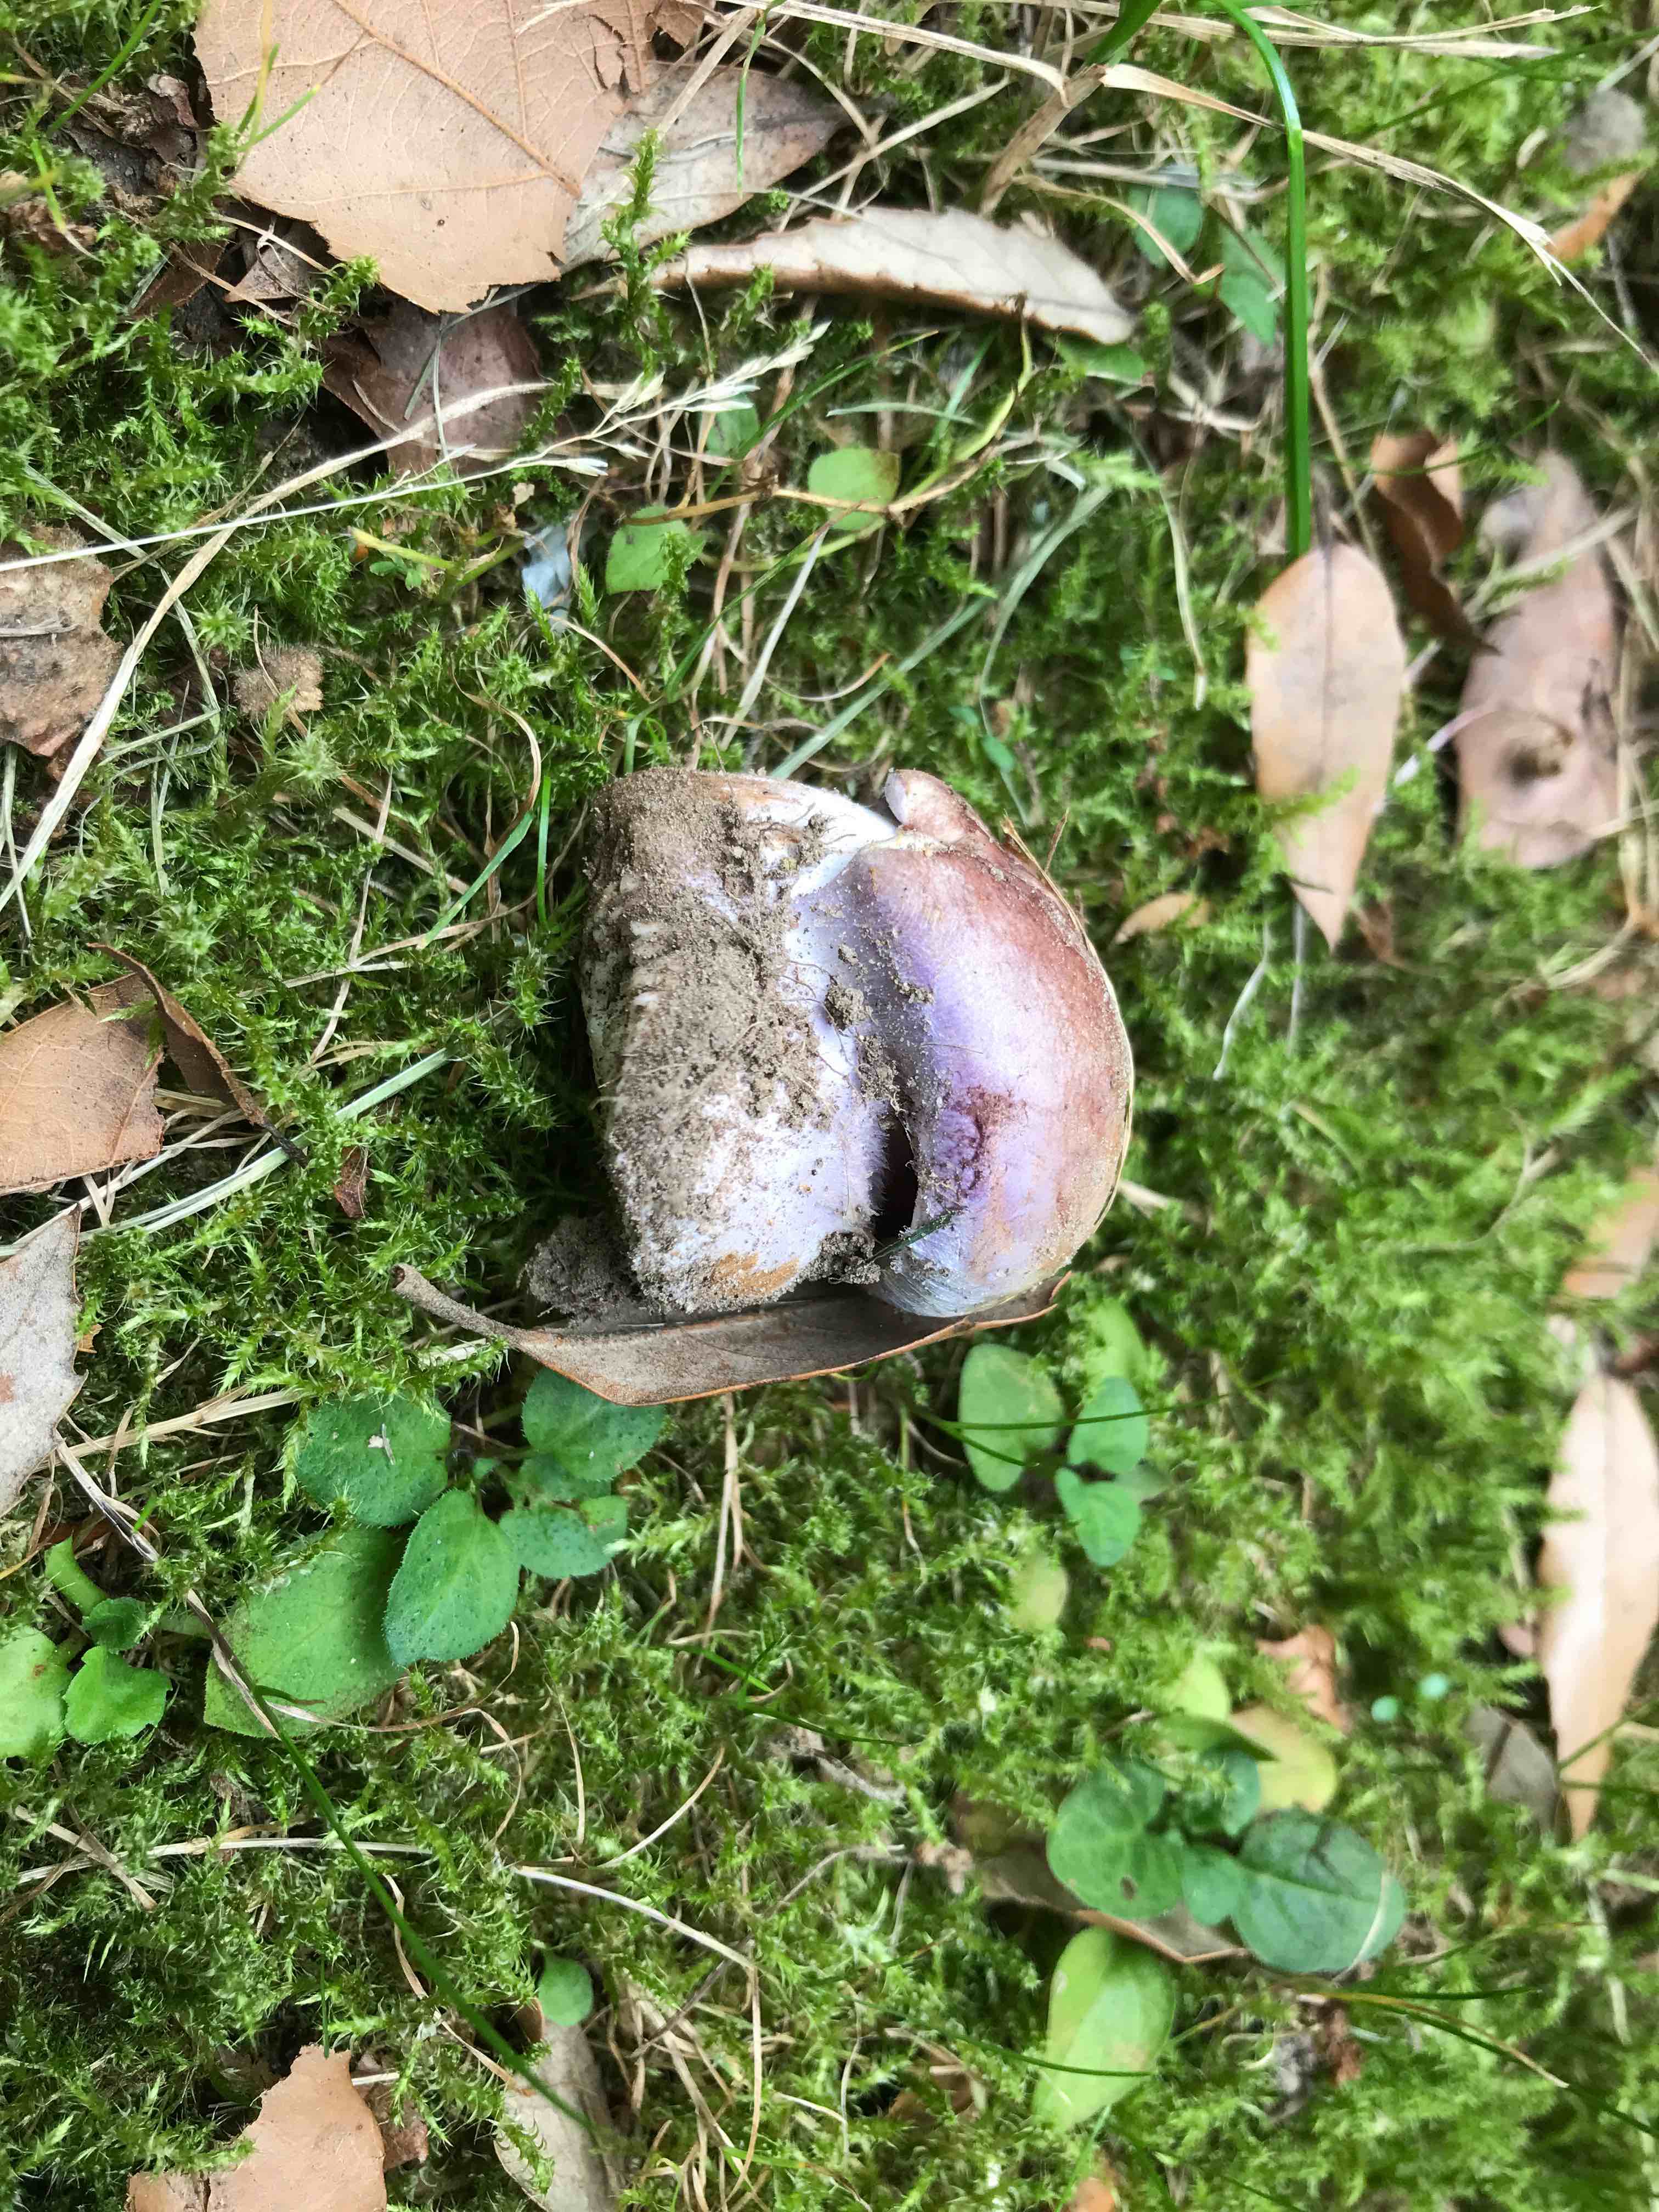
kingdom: Fungi
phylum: Basidiomycota
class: Agaricomycetes
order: Agaricales
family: Cortinariaceae
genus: Phlegmacium
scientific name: Phlegmacium balteatocumatile
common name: violettrådet slørhat
